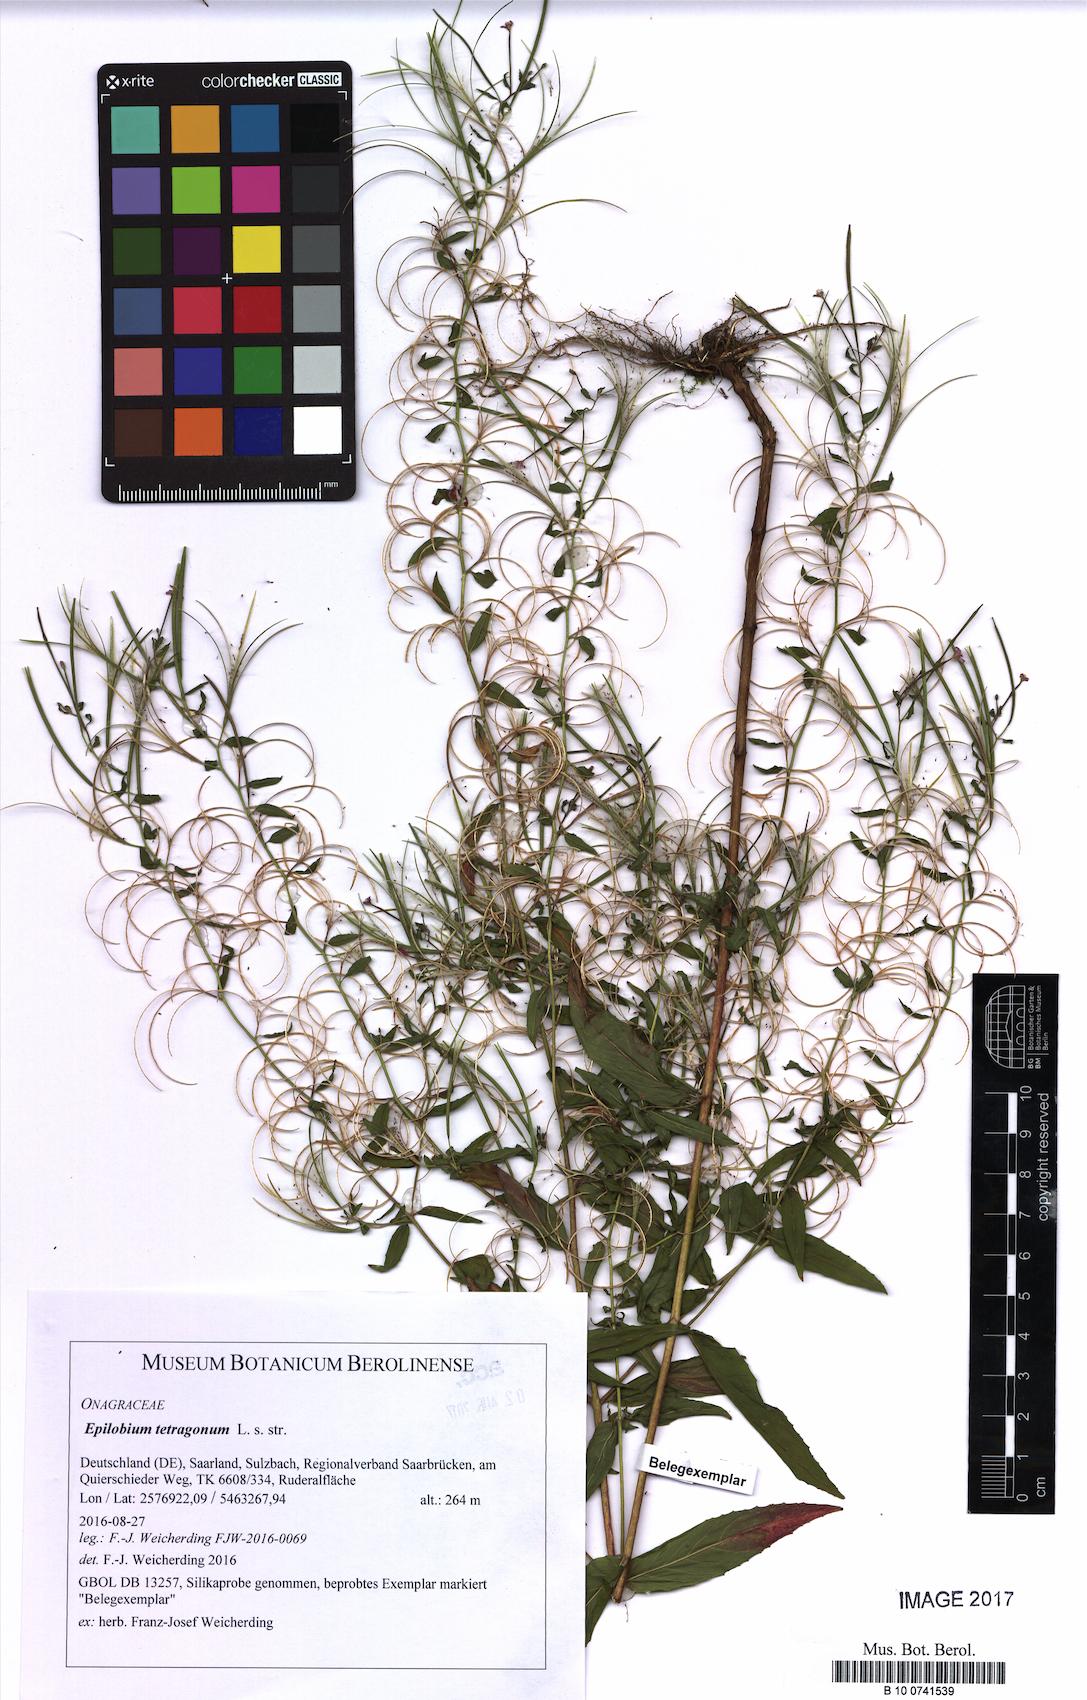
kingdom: Plantae
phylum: Tracheophyta
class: Magnoliopsida
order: Myrtales
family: Onagraceae
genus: Epilobium
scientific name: Epilobium tetragonum
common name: Square-stemmed willowherb
